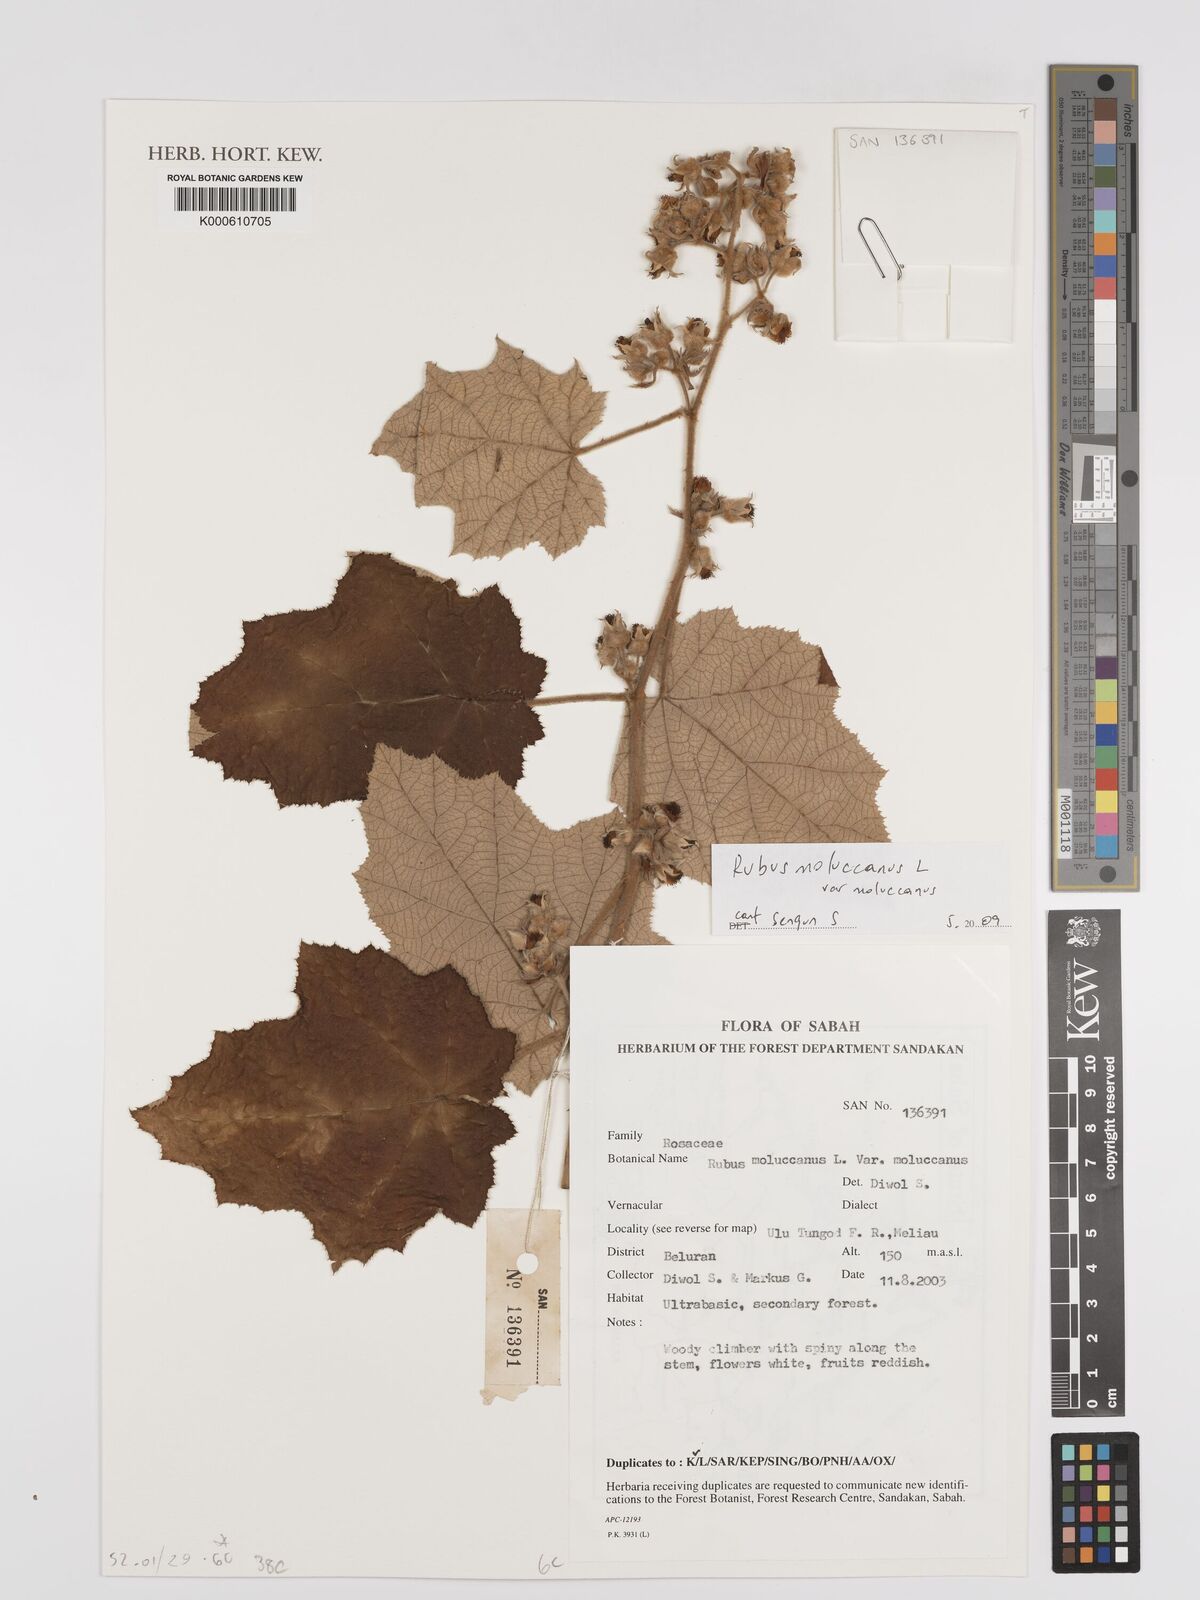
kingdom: Plantae
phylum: Tracheophyta
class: Magnoliopsida
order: Rosales
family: Rosaceae
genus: Rubus
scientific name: Rubus moluccanus
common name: Wild raspberry
